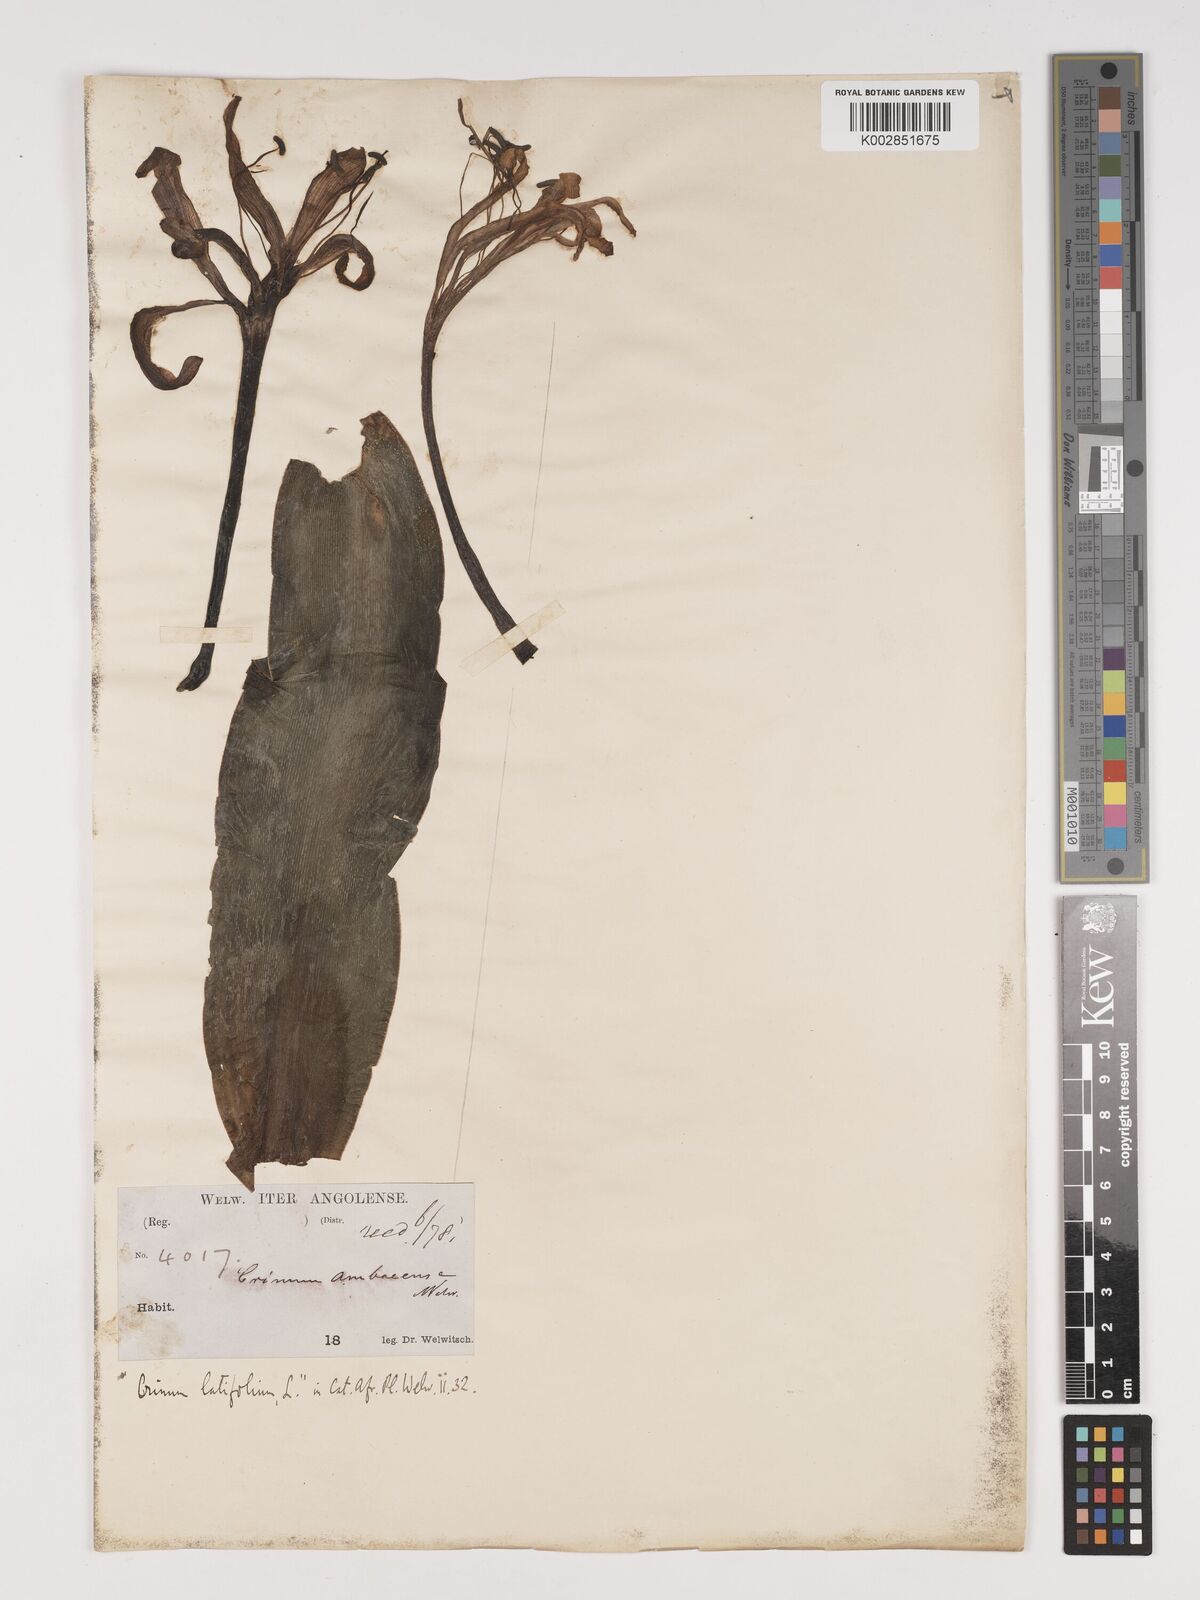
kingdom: Plantae
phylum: Tracheophyta
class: Liliopsida
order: Asparagales
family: Amaryllidaceae
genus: Crinum
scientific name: Crinum
